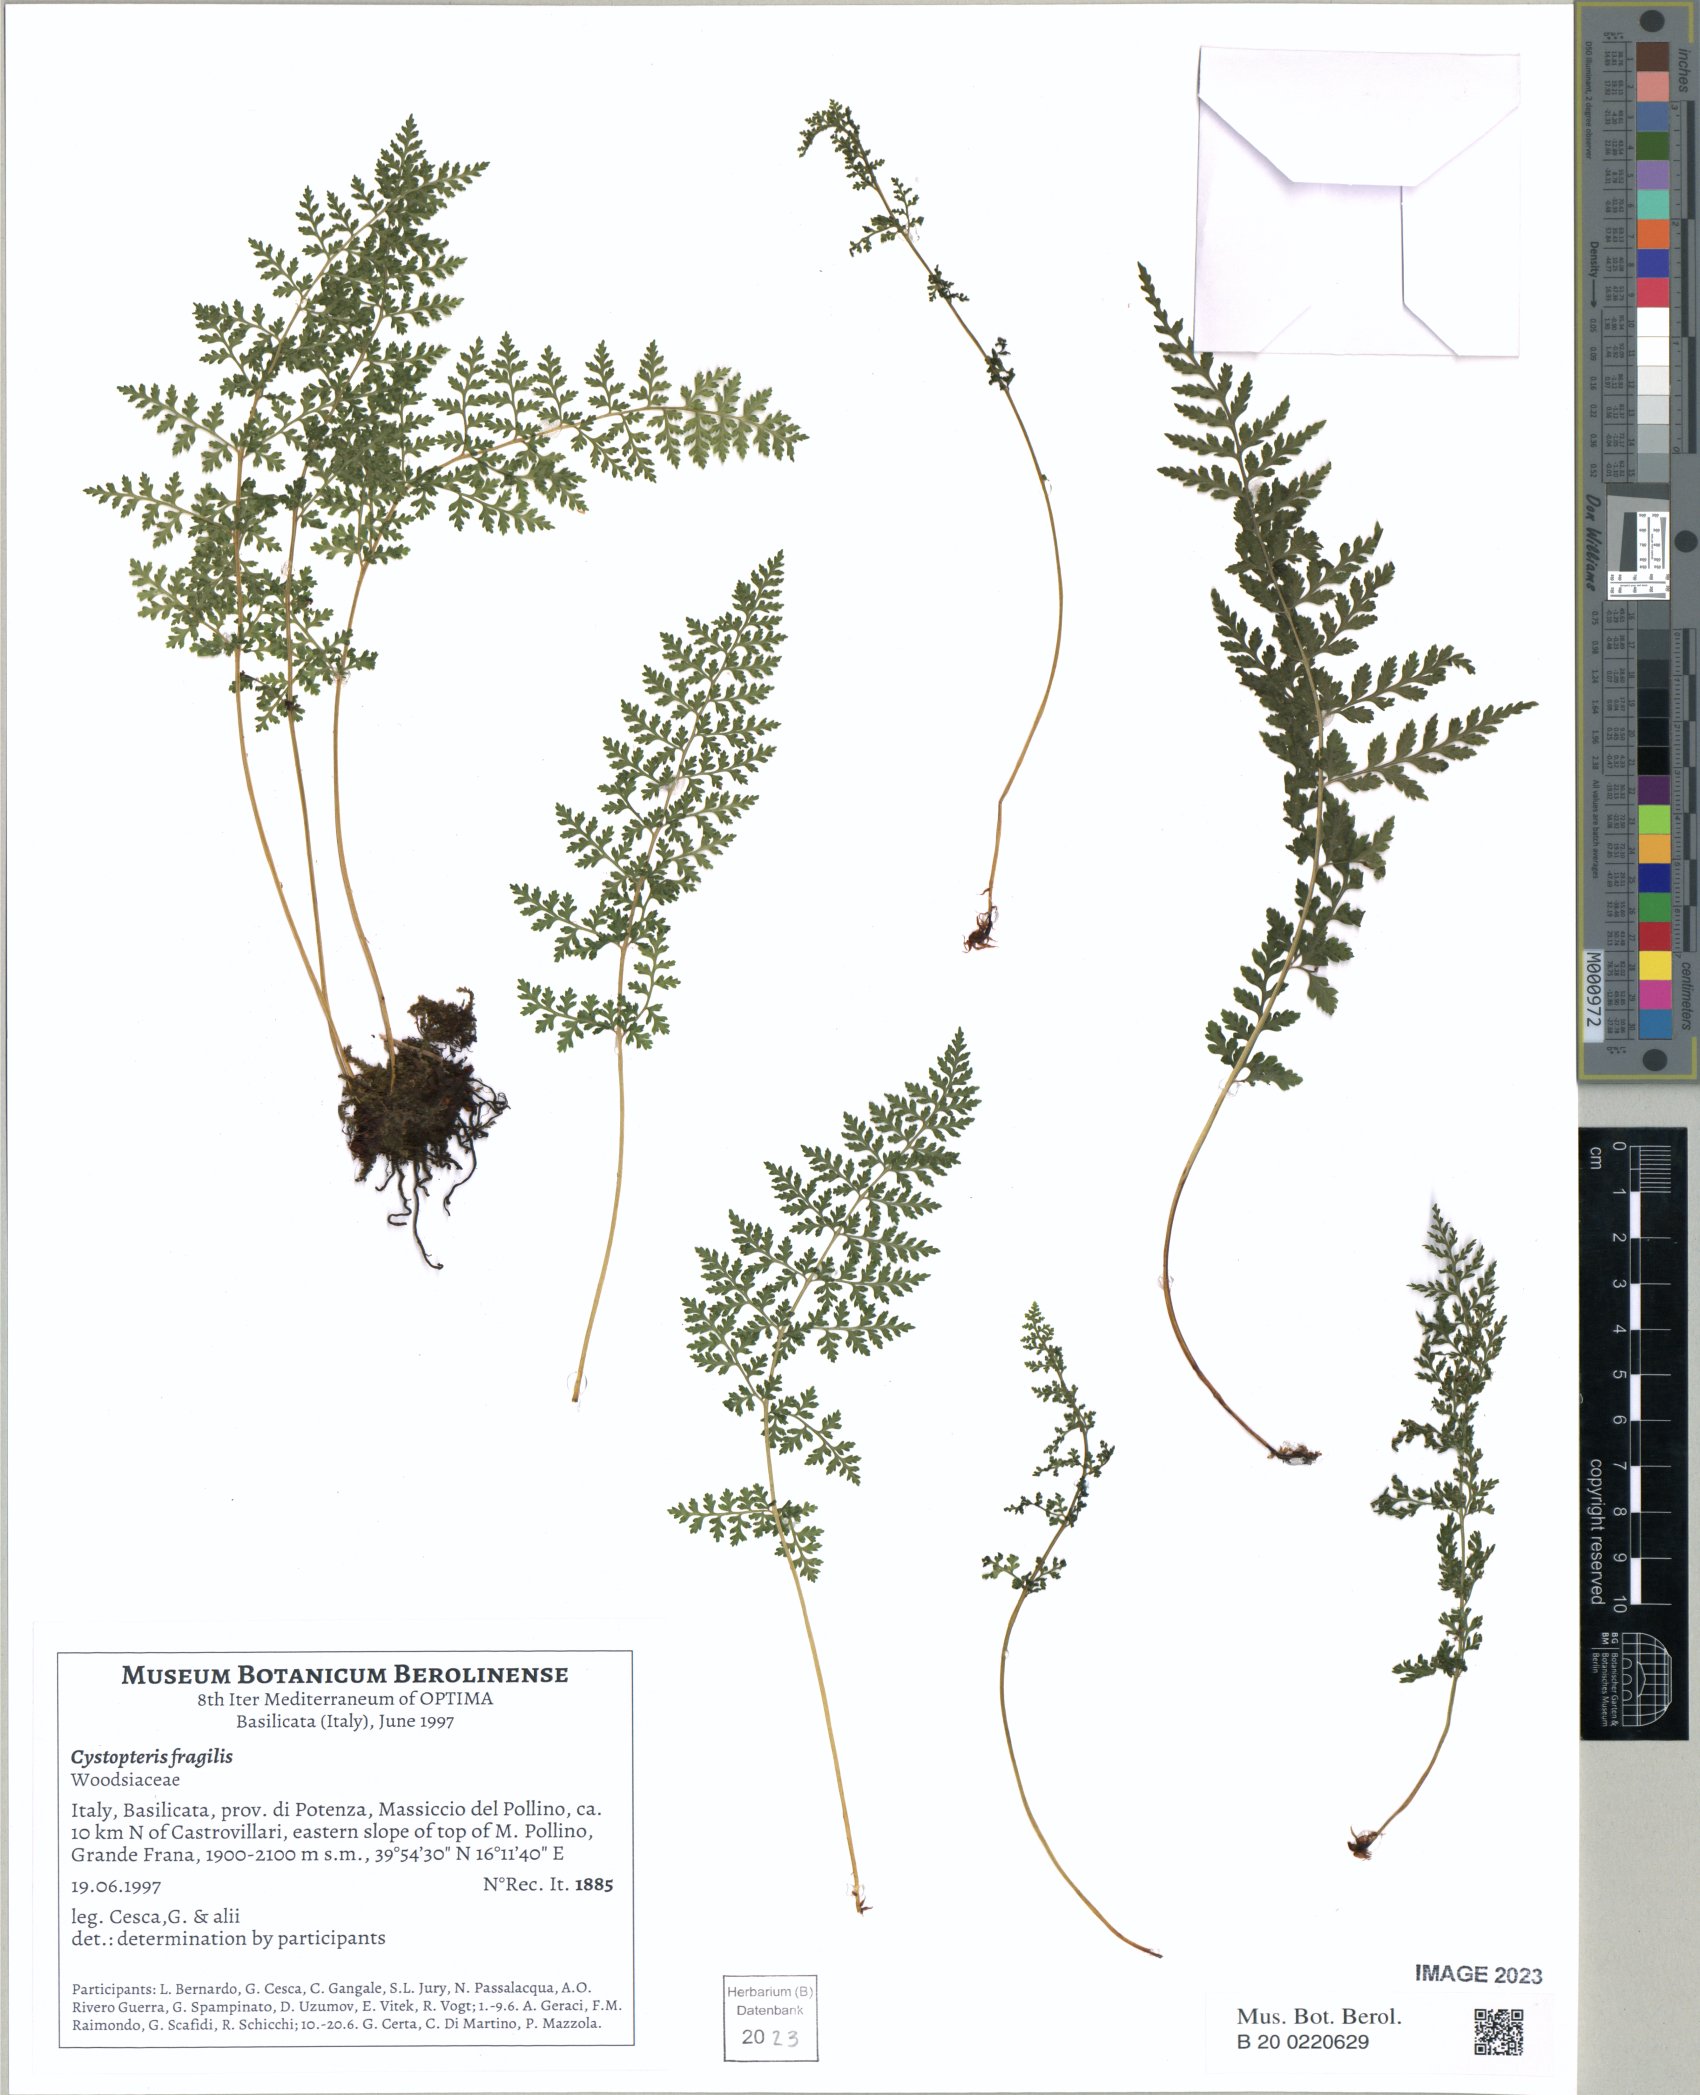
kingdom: Plantae
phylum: Tracheophyta
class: Polypodiopsida
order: Polypodiales
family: Cystopteridaceae
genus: Cystopteris
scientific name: Cystopteris fragilis
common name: Brittle bladder fern
